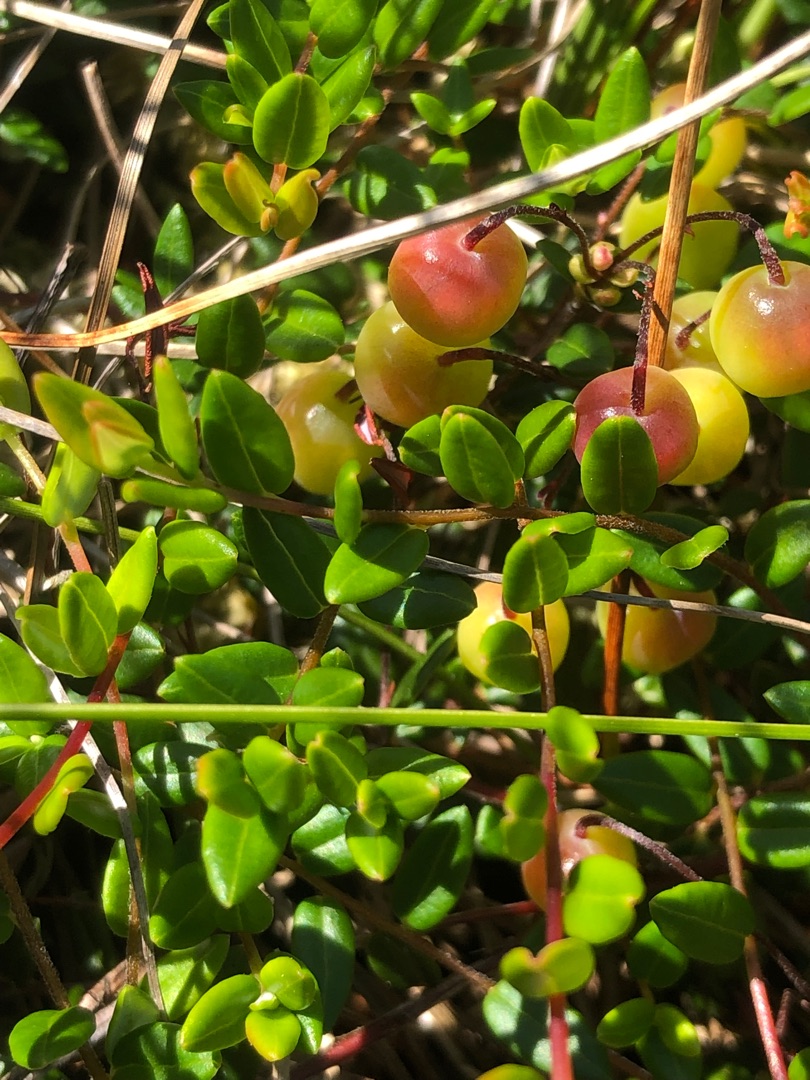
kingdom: Plantae
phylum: Tracheophyta
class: Magnoliopsida
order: Ericales
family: Ericaceae
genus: Vaccinium
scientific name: Vaccinium oxycoccos
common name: Tranebær
